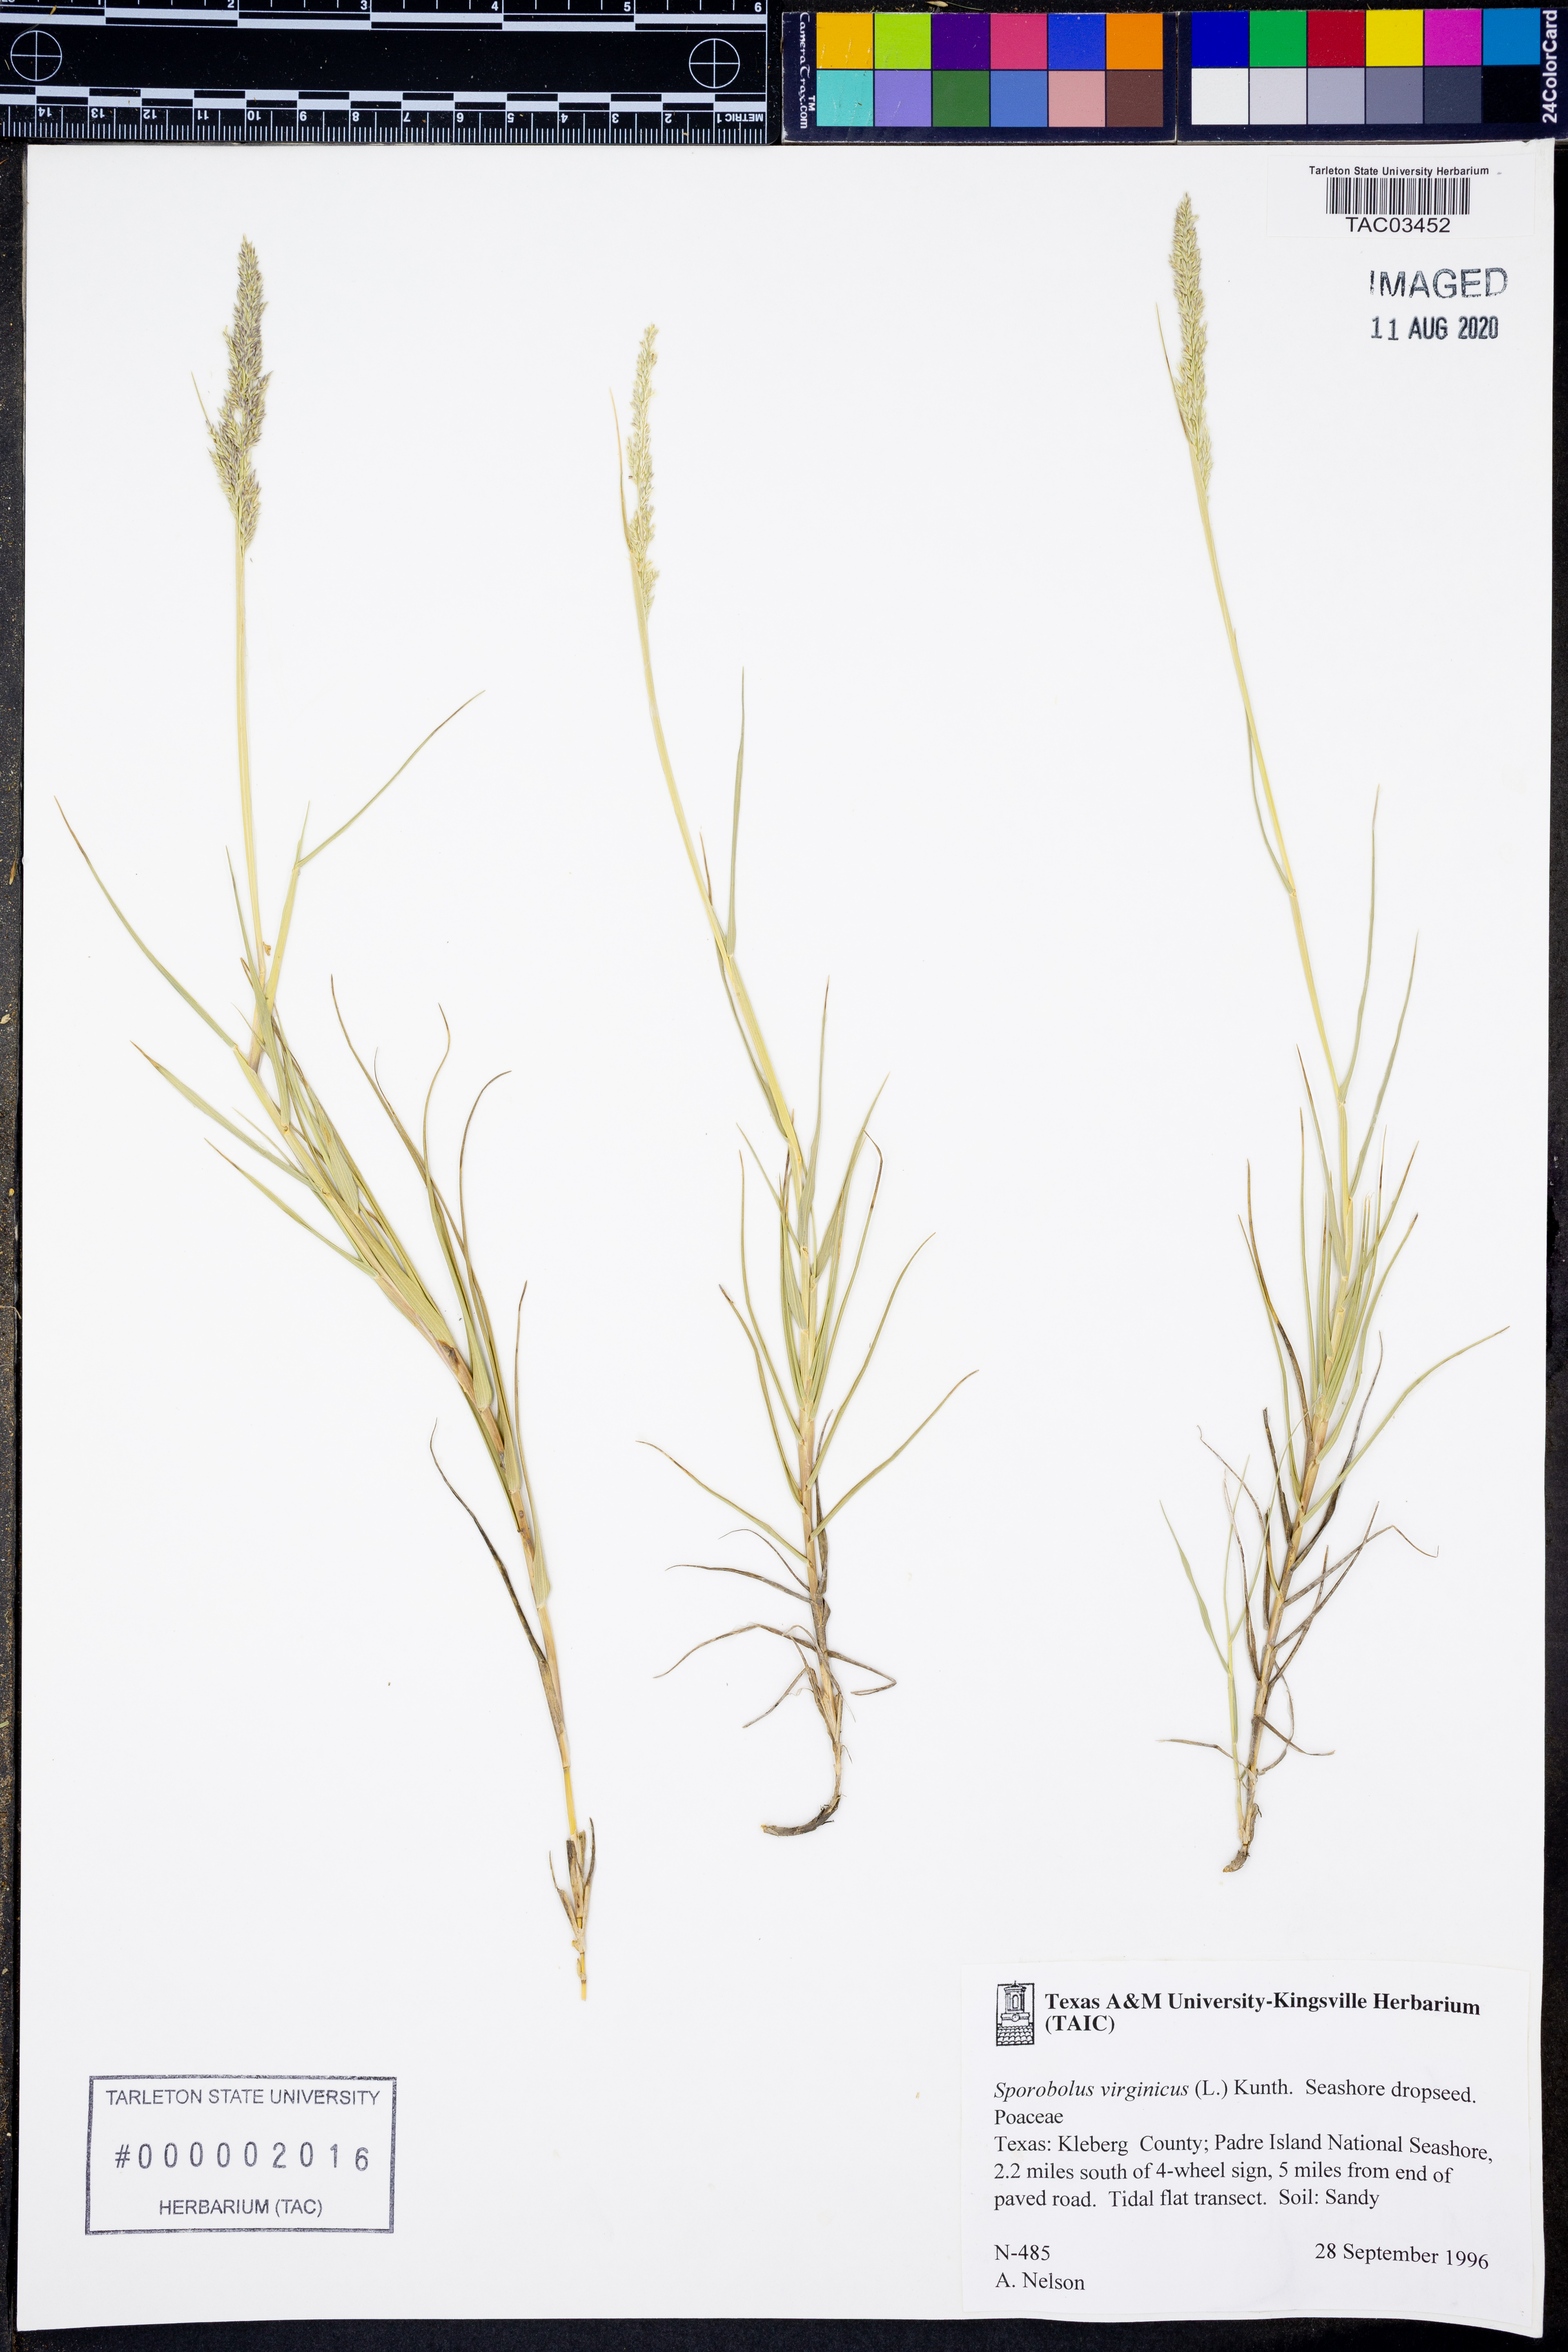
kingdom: Plantae
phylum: Tracheophyta
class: Liliopsida
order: Poales
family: Poaceae
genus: Sporobolus
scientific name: Sporobolus virginicus
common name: Beach dropseed
